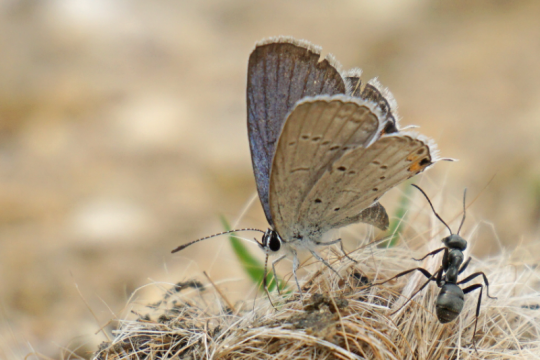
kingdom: Animalia
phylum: Arthropoda
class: Insecta
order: Lepidoptera
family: Lycaenidae
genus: Elkalyce
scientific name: Elkalyce comyntas
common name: Eastern Tailed-Blue
